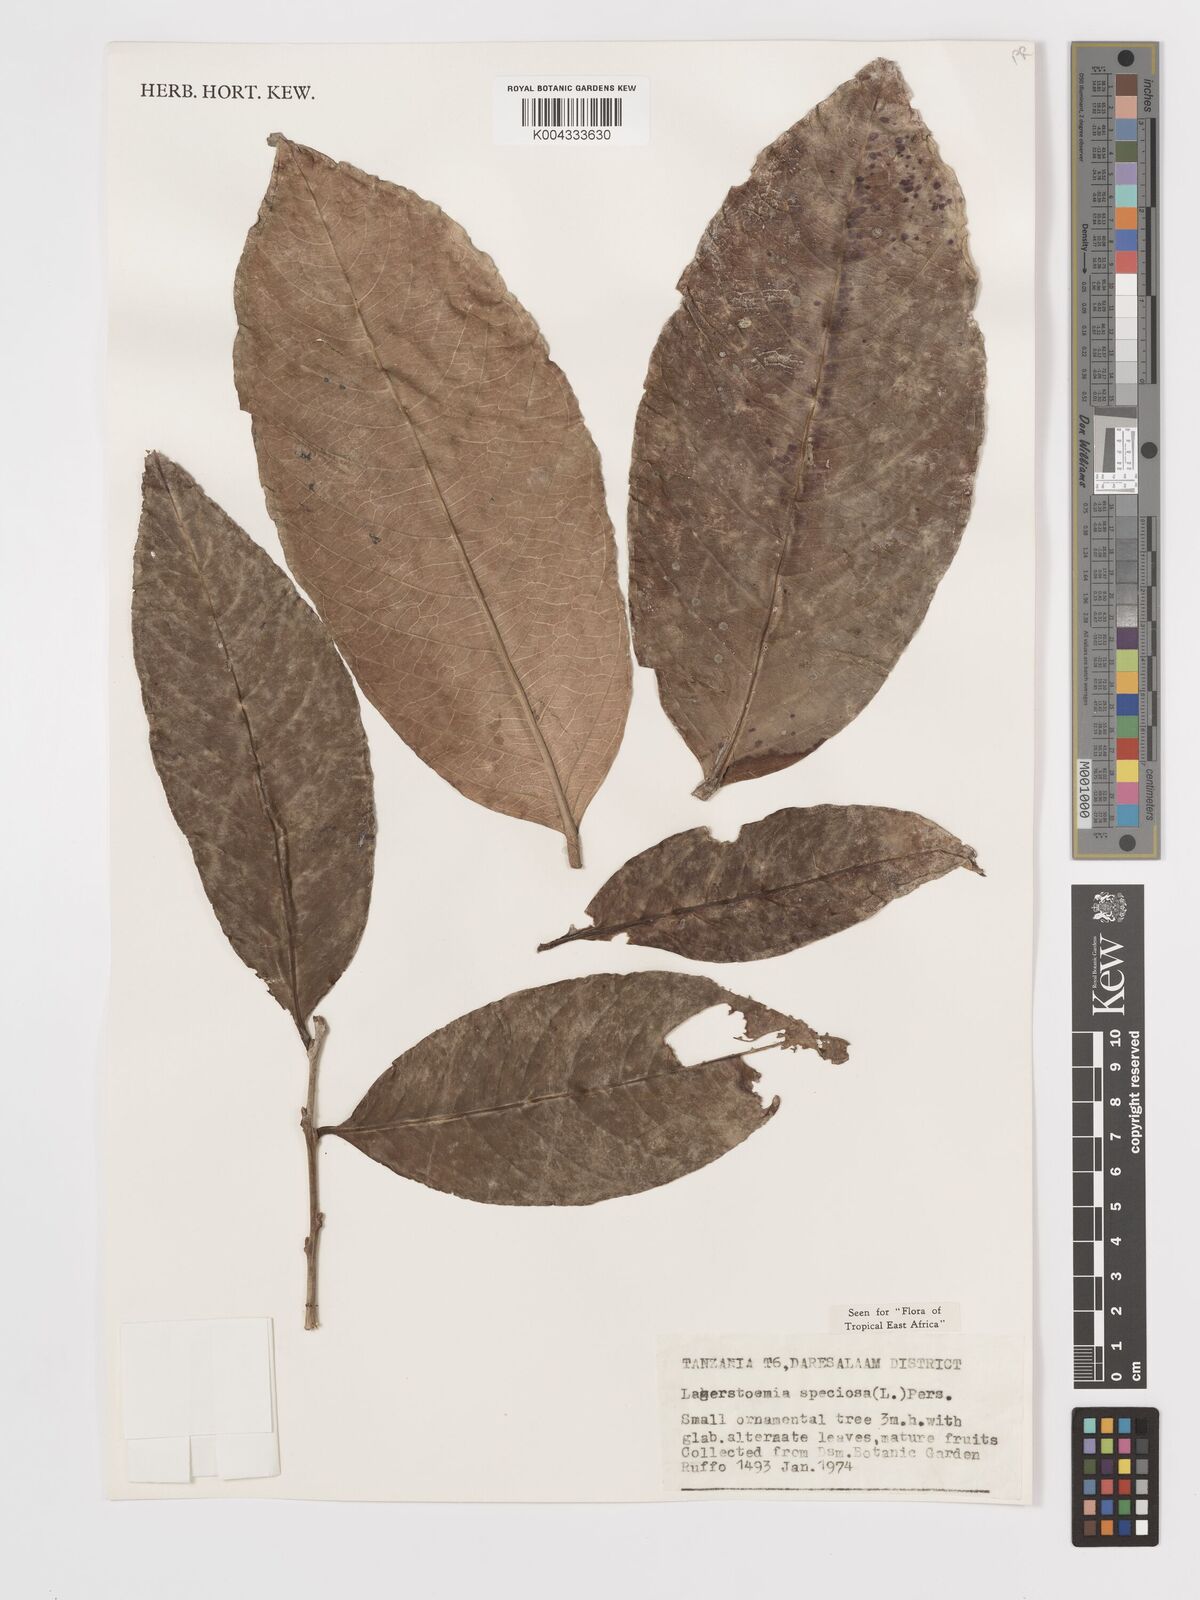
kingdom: Plantae
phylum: Tracheophyta
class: Magnoliopsida
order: Myrtales
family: Lythraceae
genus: Lagerstroemia
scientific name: Lagerstroemia speciosa
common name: Queen's crape-myrtle
